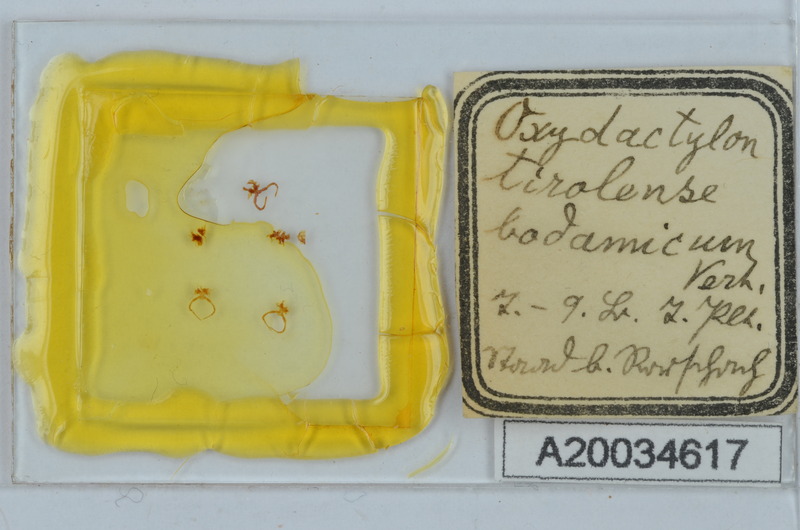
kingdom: Animalia
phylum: Arthropoda
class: Diplopoda
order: Chordeumatida
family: Craspedosomatidae
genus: Iulogona
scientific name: Iulogona tirolensis
